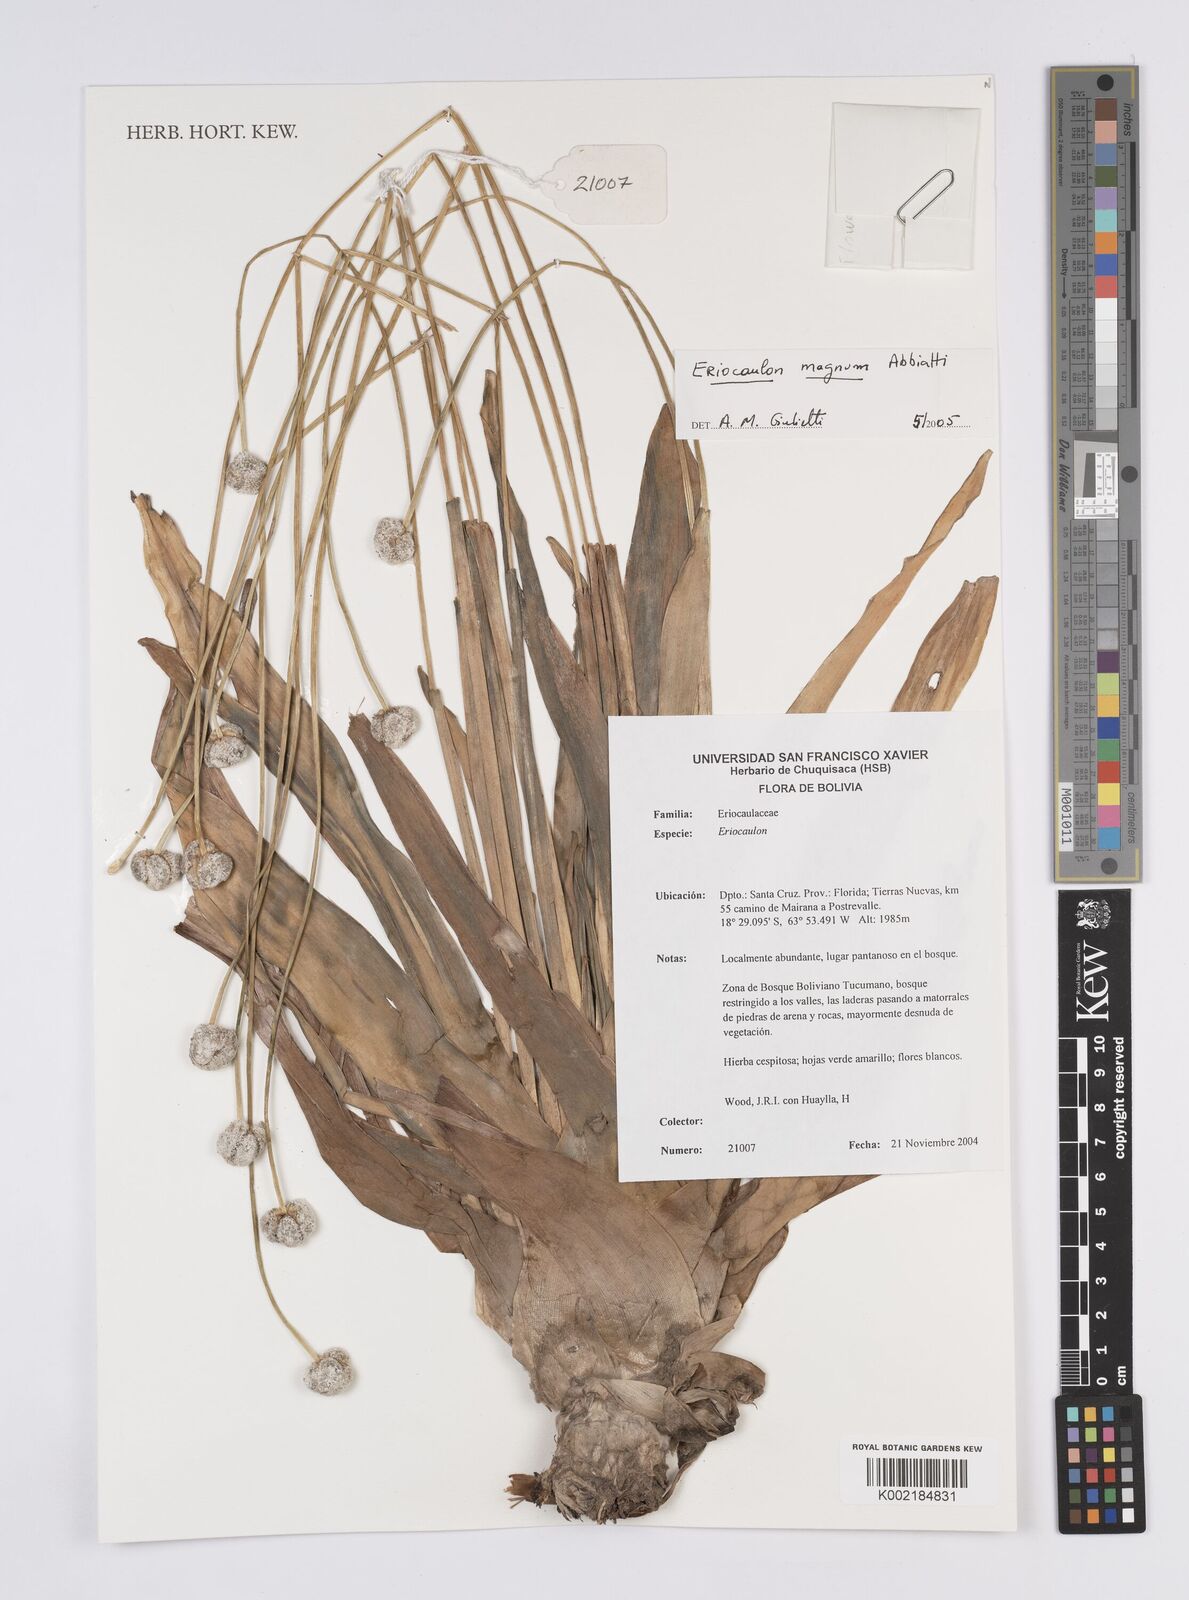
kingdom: Plantae
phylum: Tracheophyta
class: Liliopsida
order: Poales
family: Eriocaulaceae
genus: Eriocaulon
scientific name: Eriocaulon magnum
